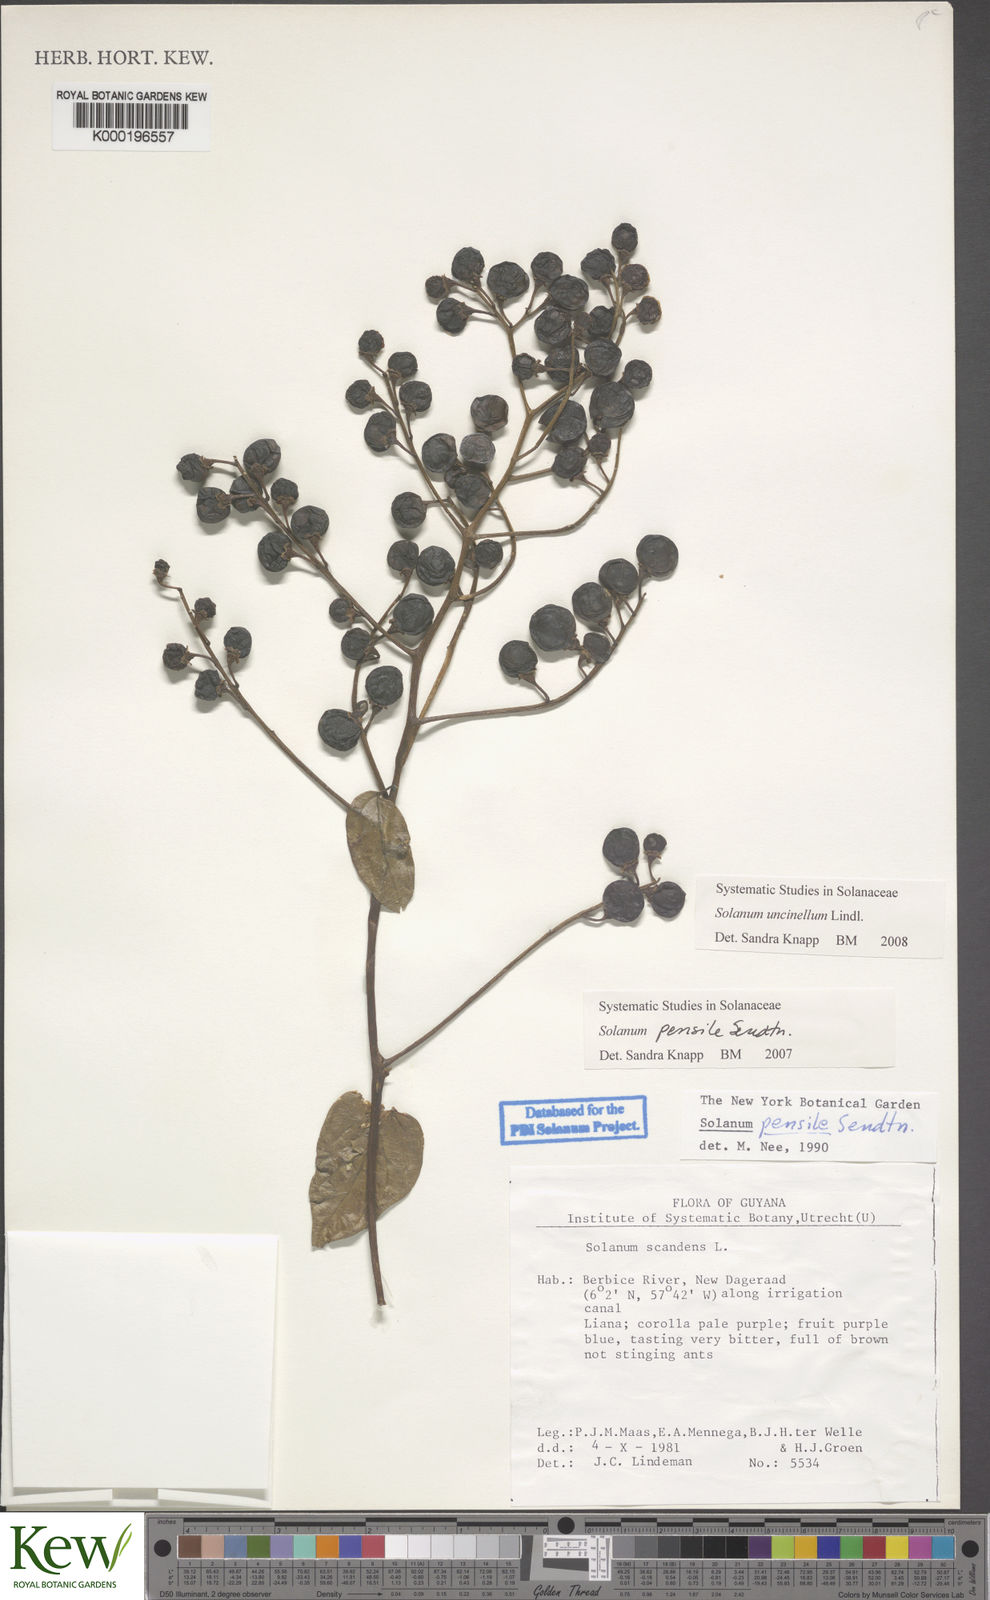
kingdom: Plantae
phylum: Tracheophyta
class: Magnoliopsida
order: Solanales
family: Solanaceae
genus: Solanum
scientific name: Solanum uncinellum
